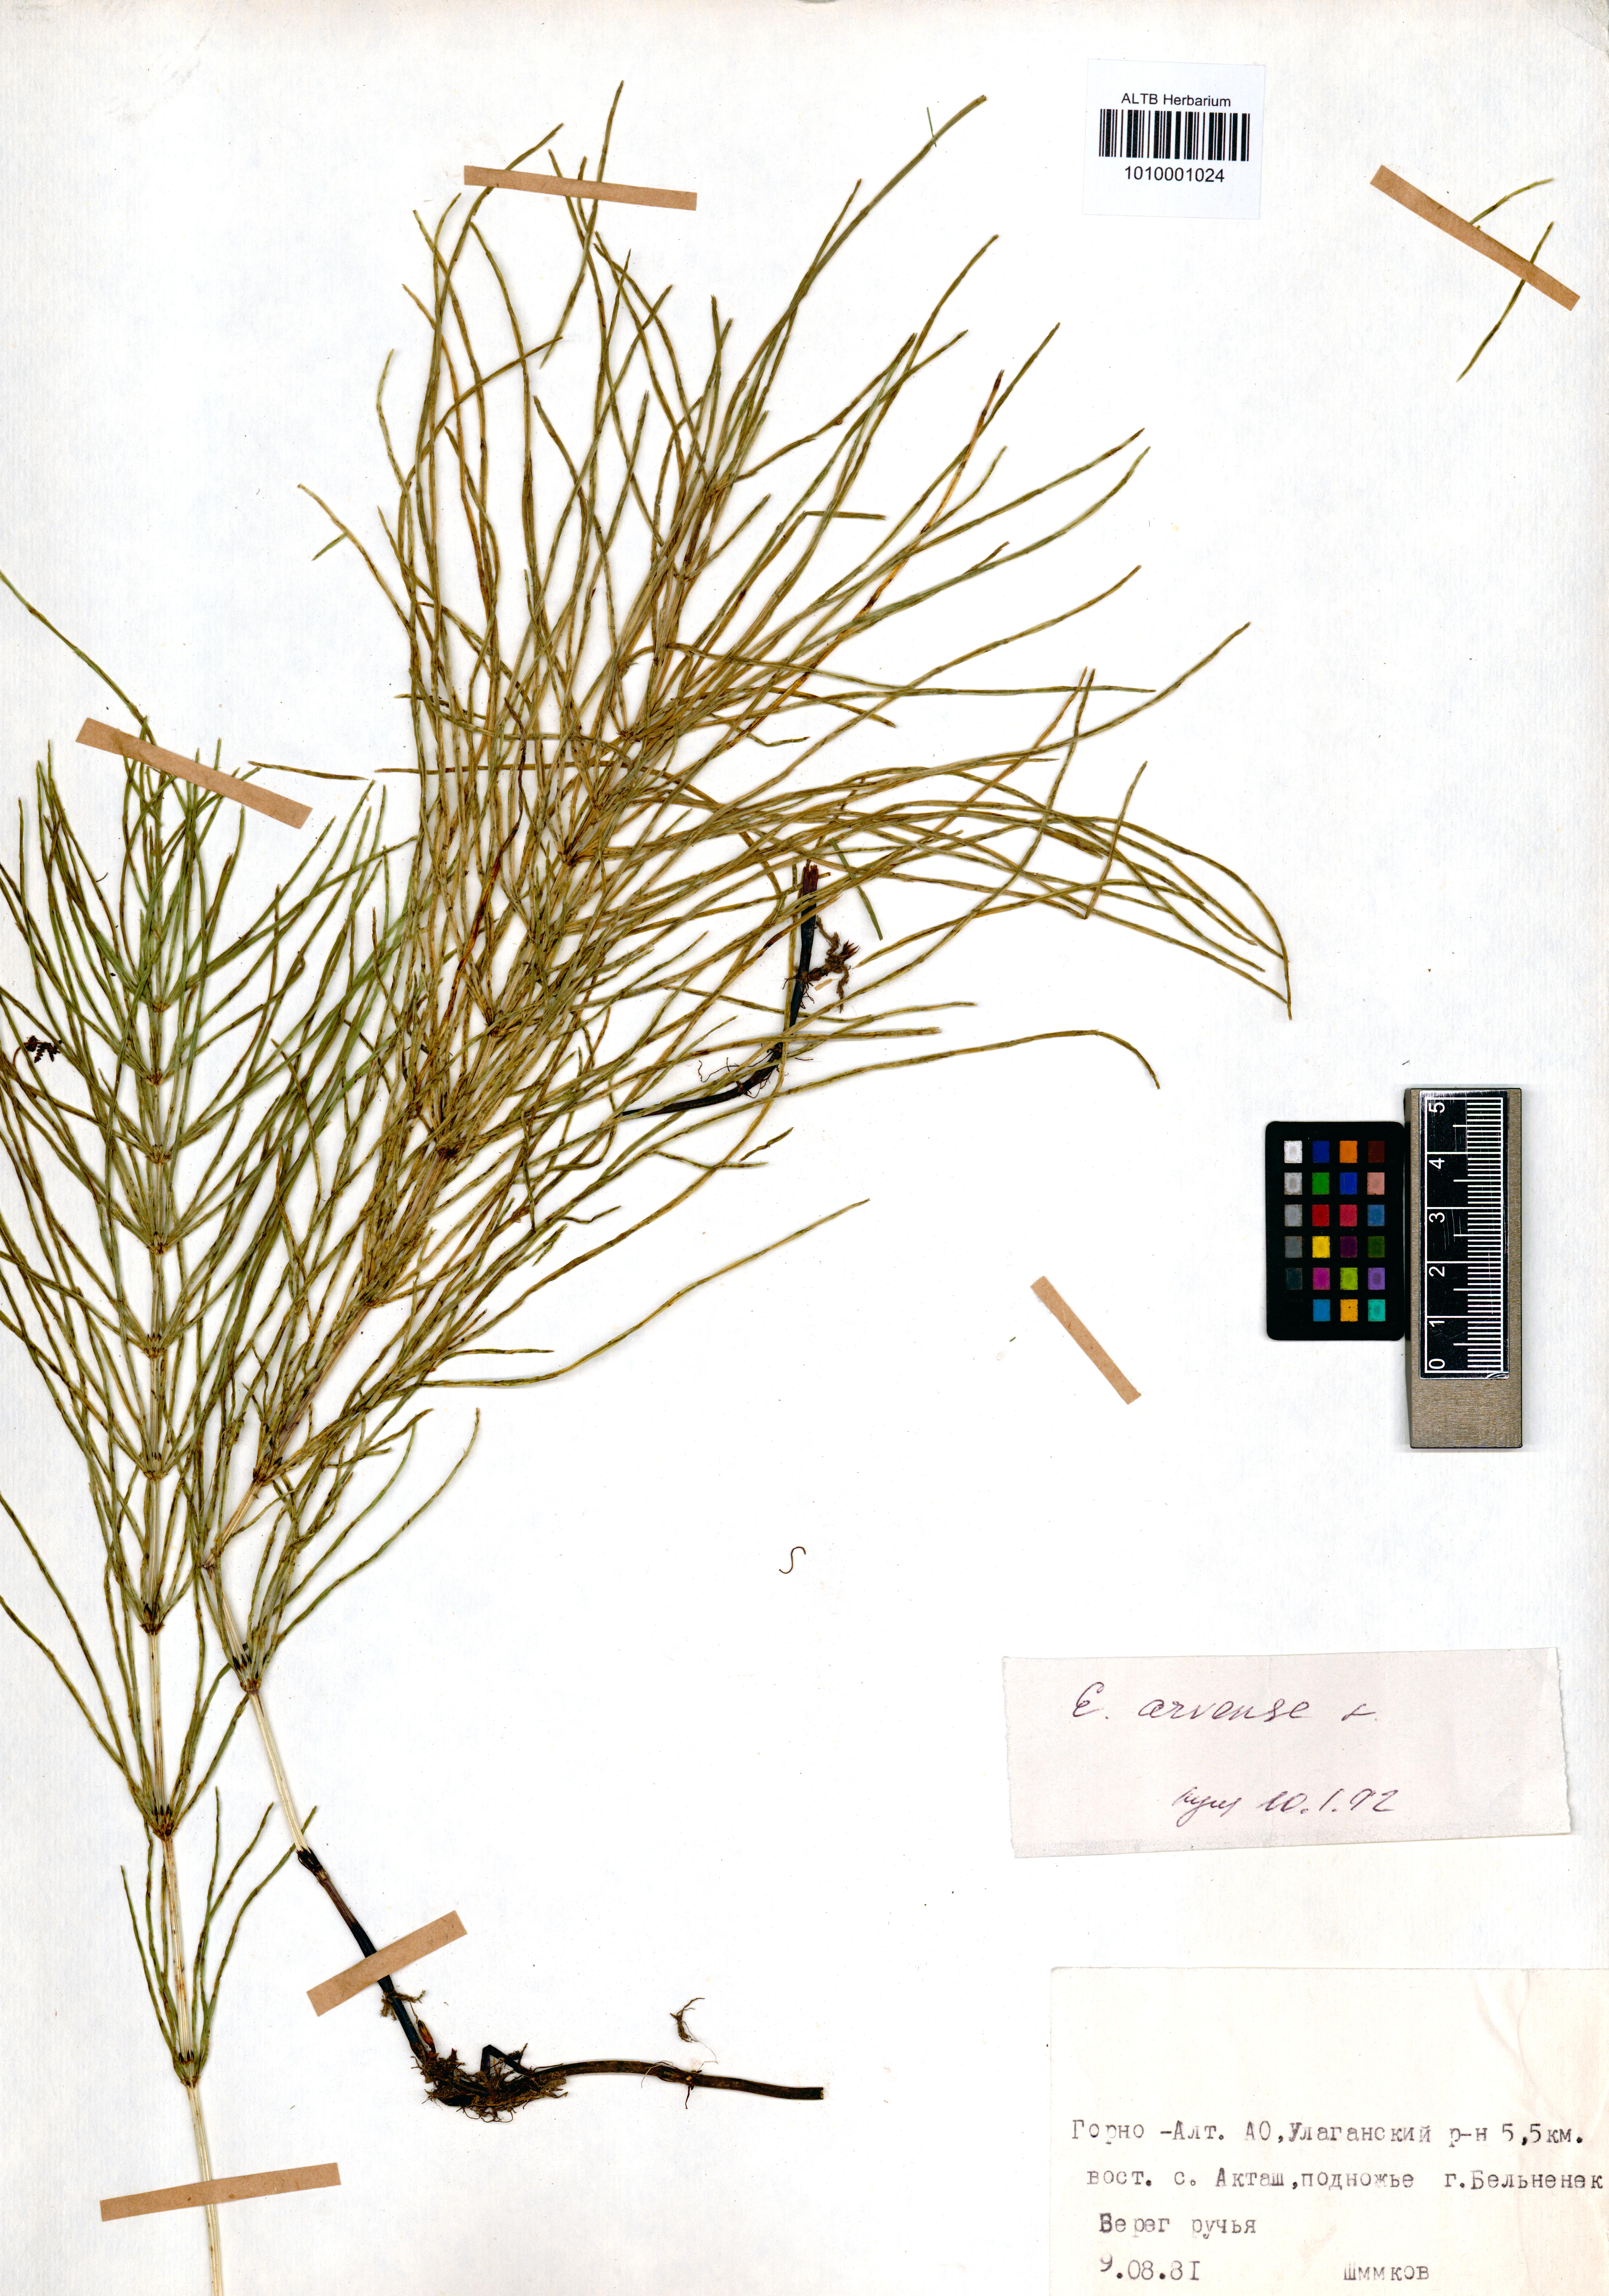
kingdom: Plantae
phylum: Tracheophyta
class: Polypodiopsida
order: Equisetales
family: Equisetaceae
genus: Equisetum
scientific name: Equisetum arvense
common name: Field horsetail
